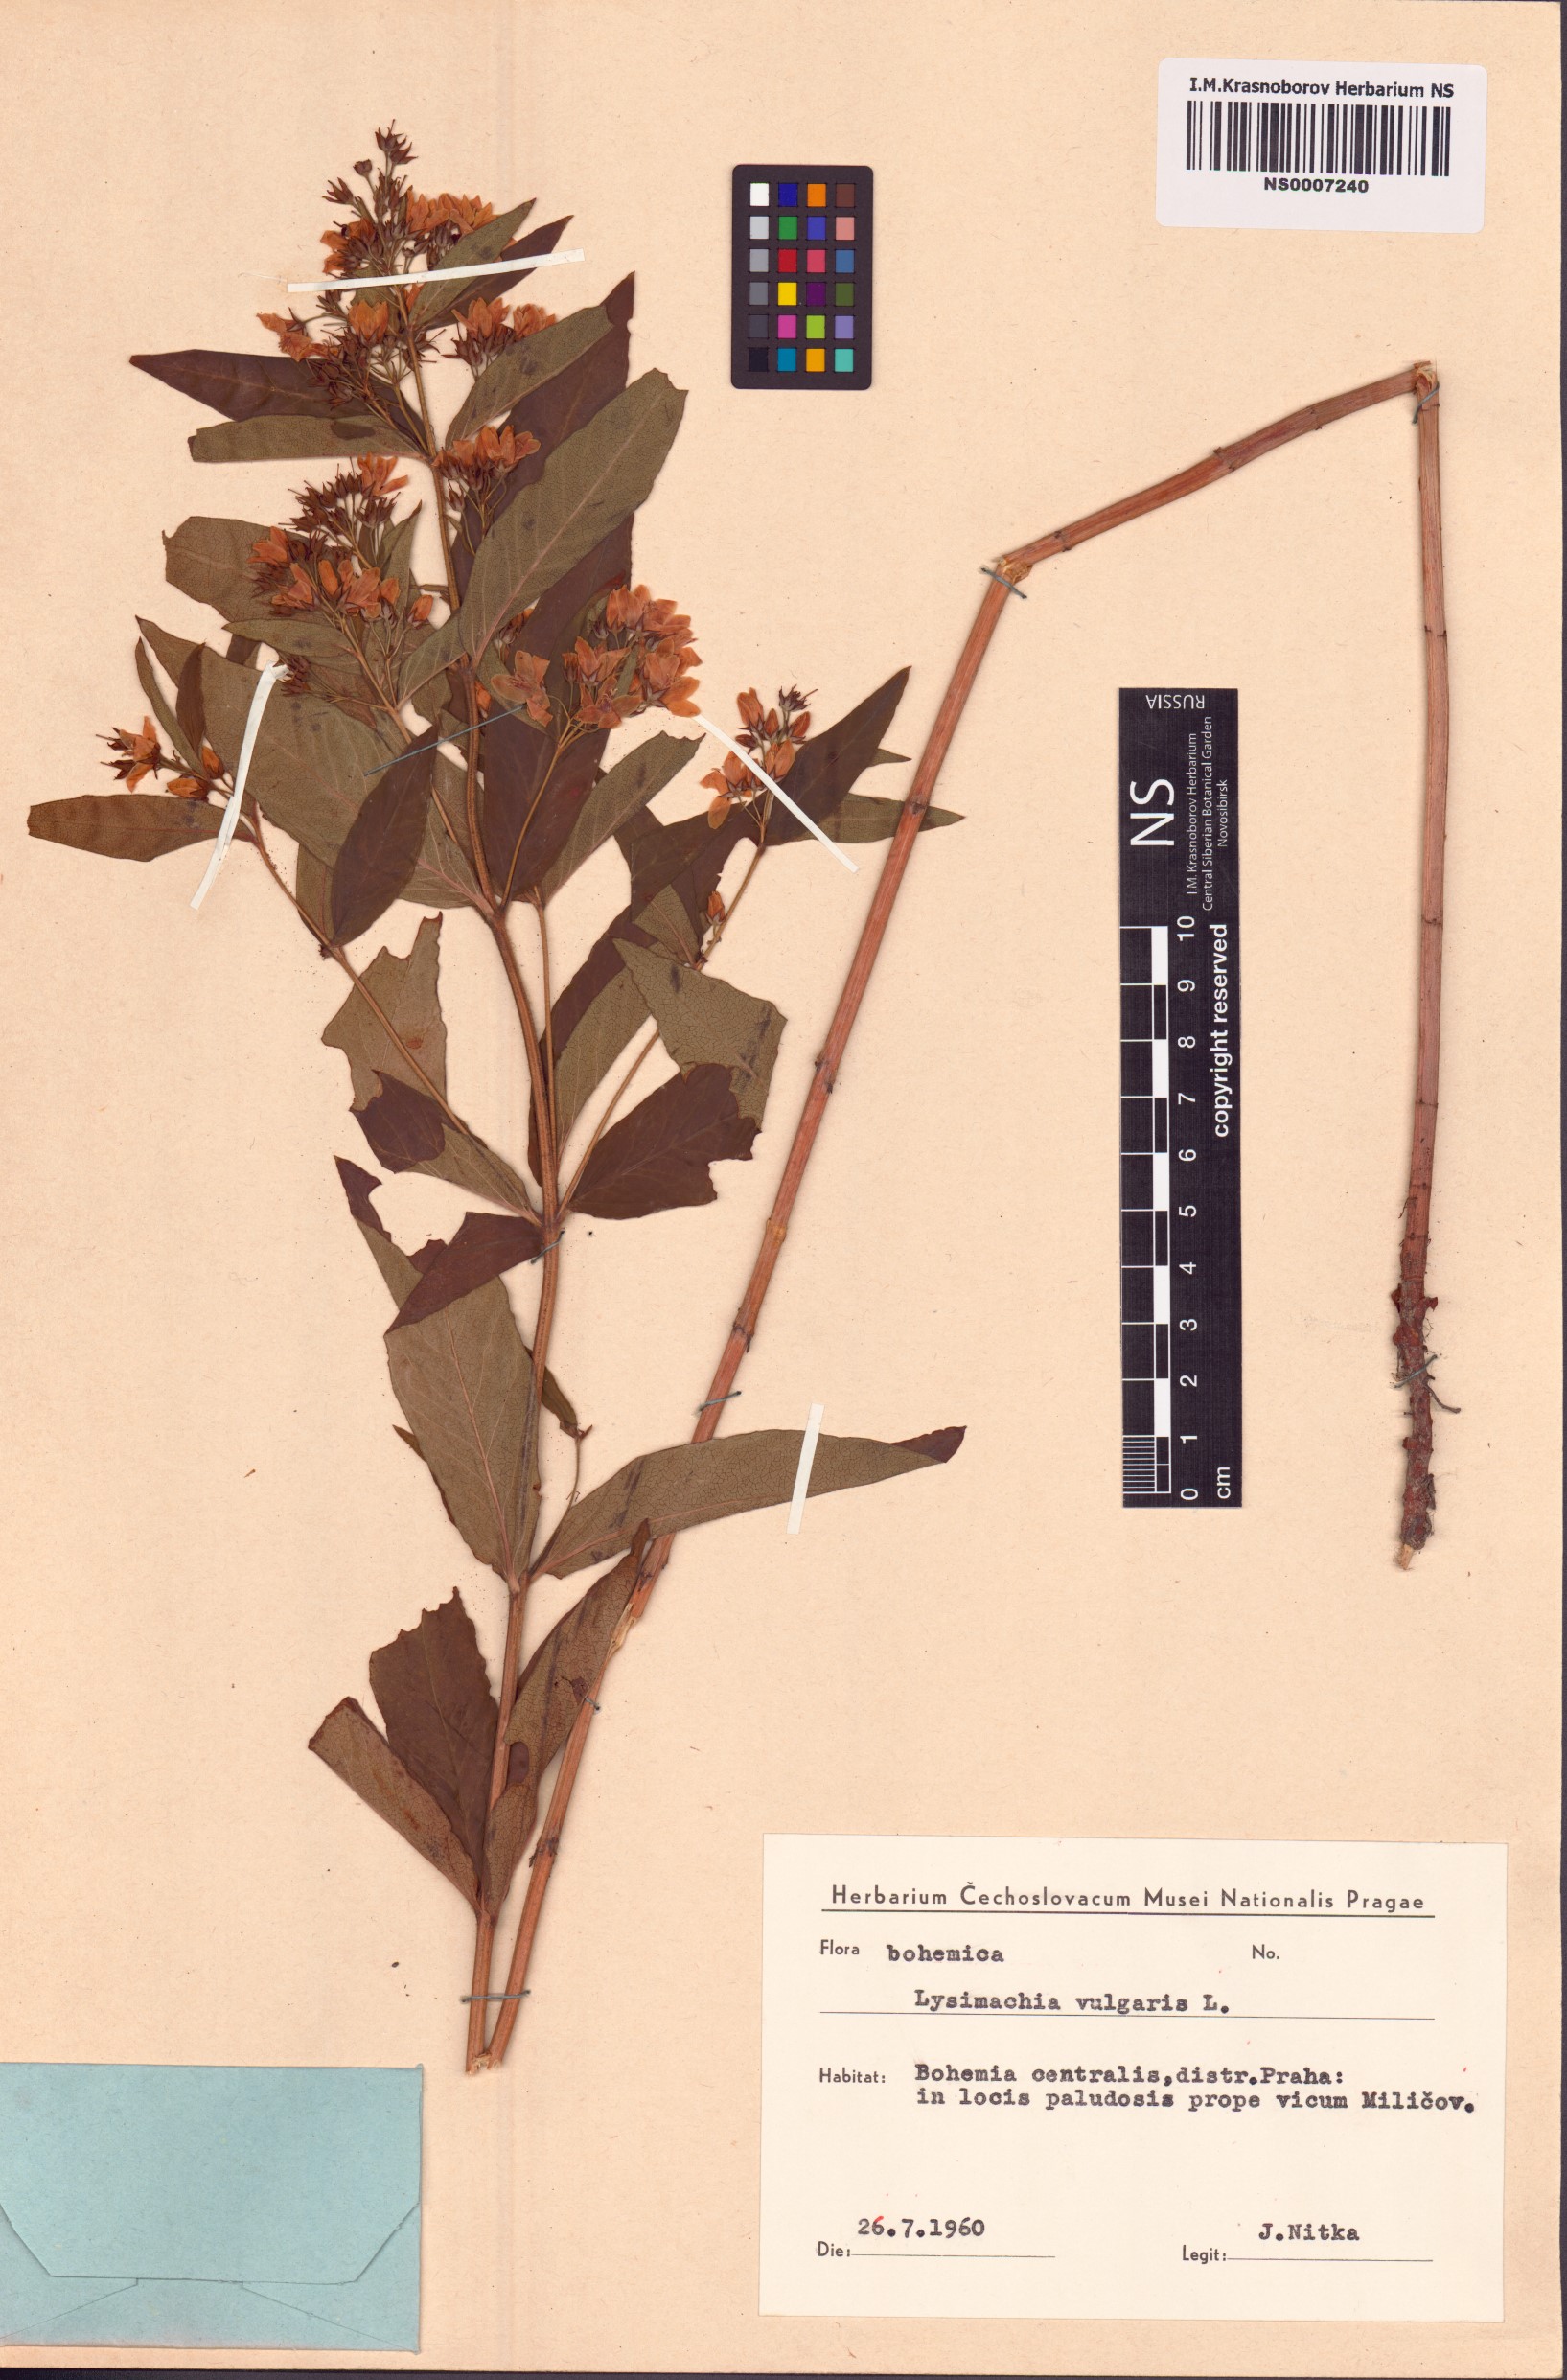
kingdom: Plantae
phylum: Tracheophyta
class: Magnoliopsida
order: Ericales
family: Primulaceae
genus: Lysimachia
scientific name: Lysimachia vulgaris
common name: Yellow loosestrife
